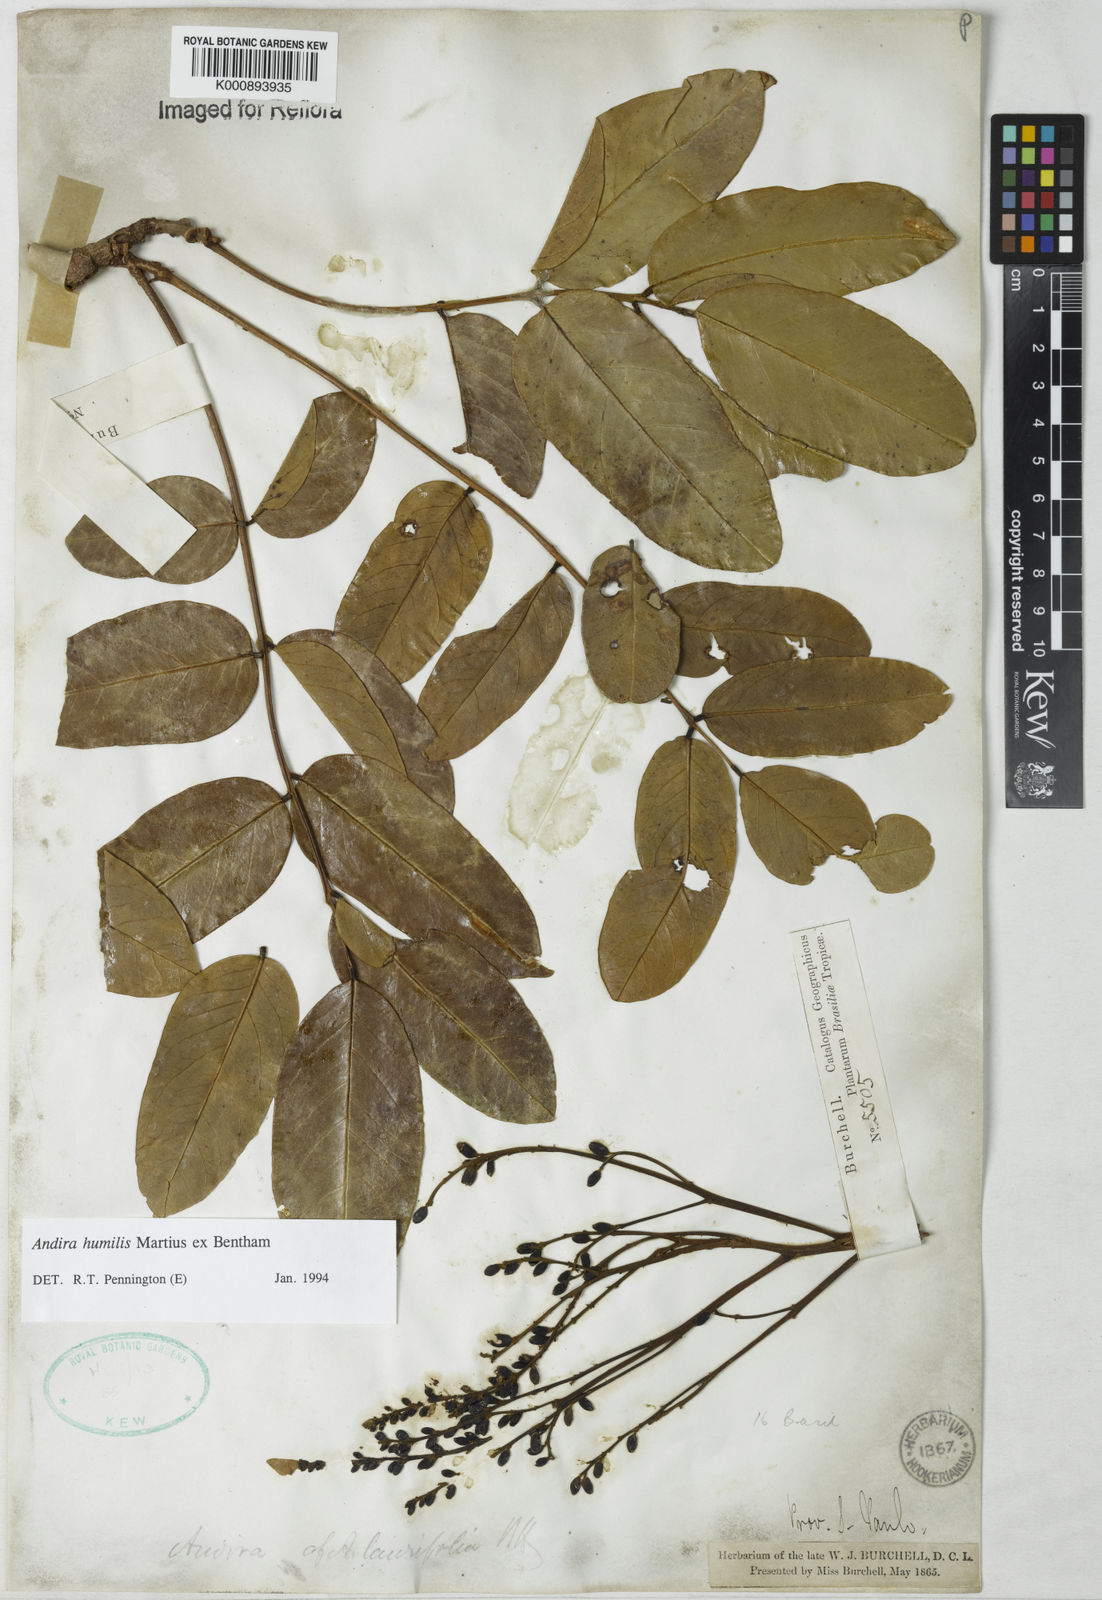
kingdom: Plantae
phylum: Tracheophyta
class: Magnoliopsida
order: Fabales
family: Fabaceae
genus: Andira
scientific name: Andira humilis
